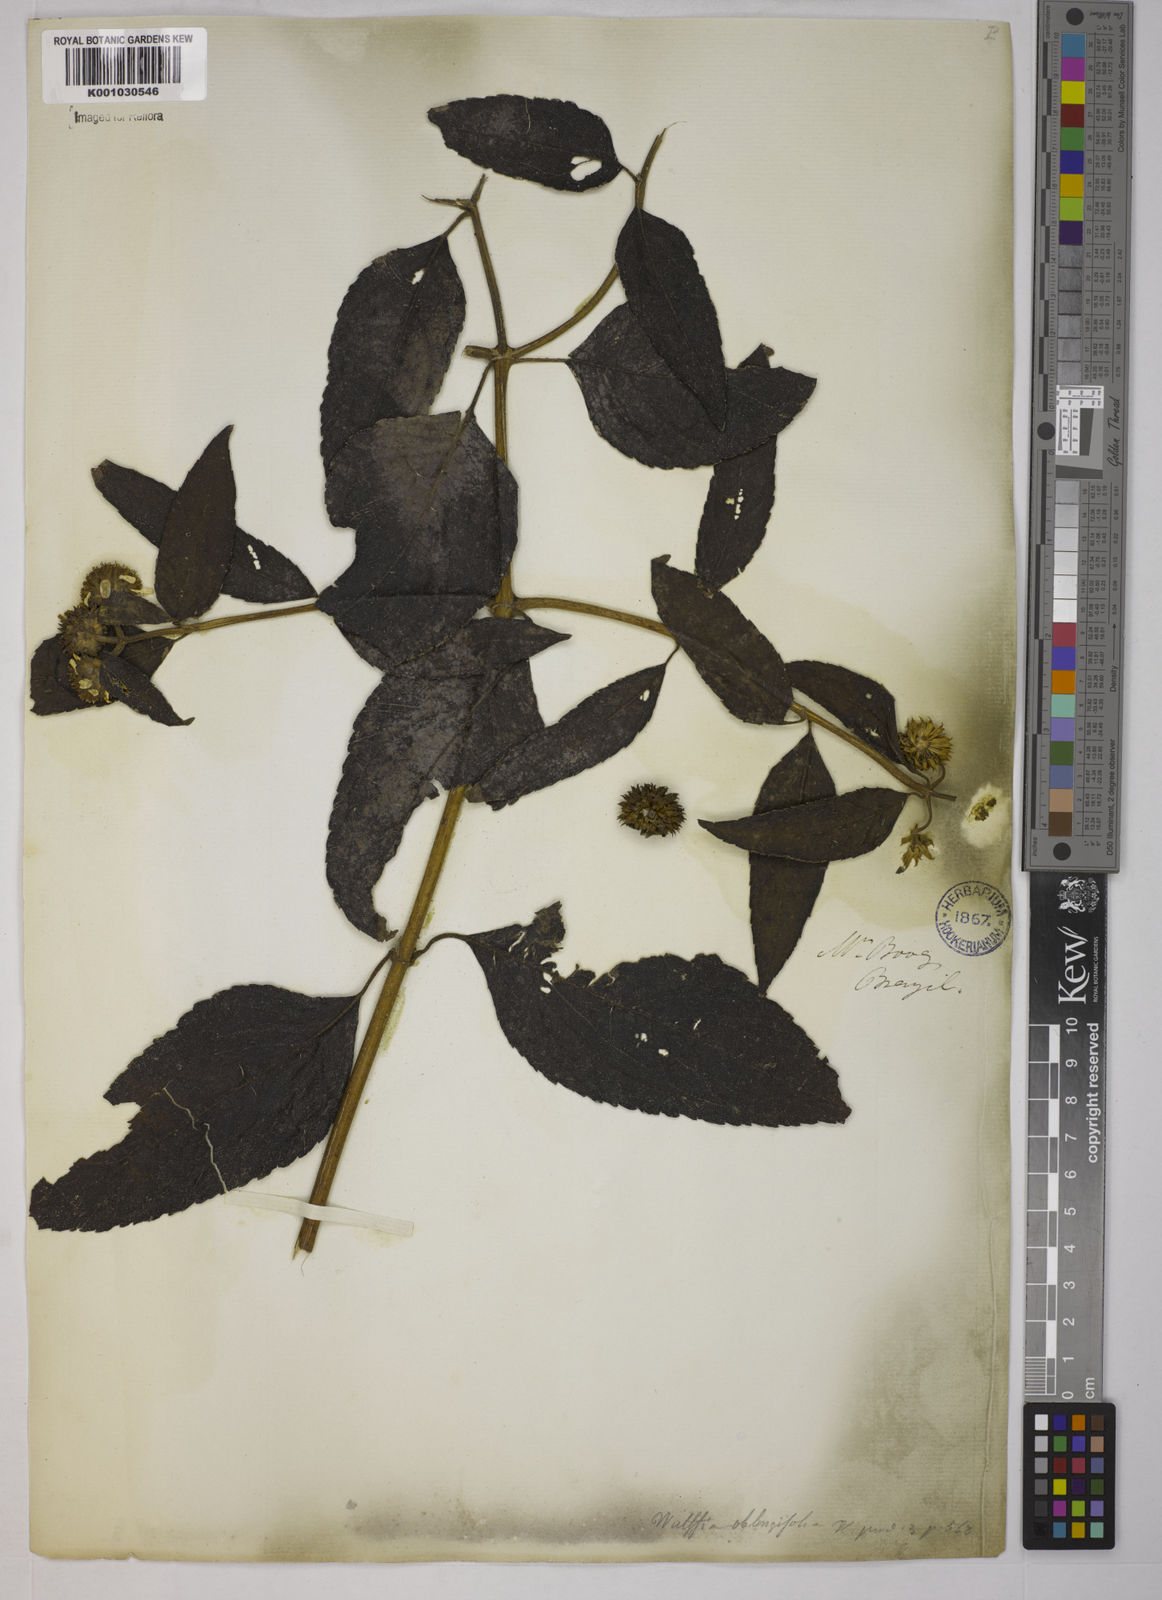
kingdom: Plantae
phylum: Tracheophyta
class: Magnoliopsida
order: Asterales
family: Asteraceae
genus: Tilesia
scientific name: Tilesia baccata
